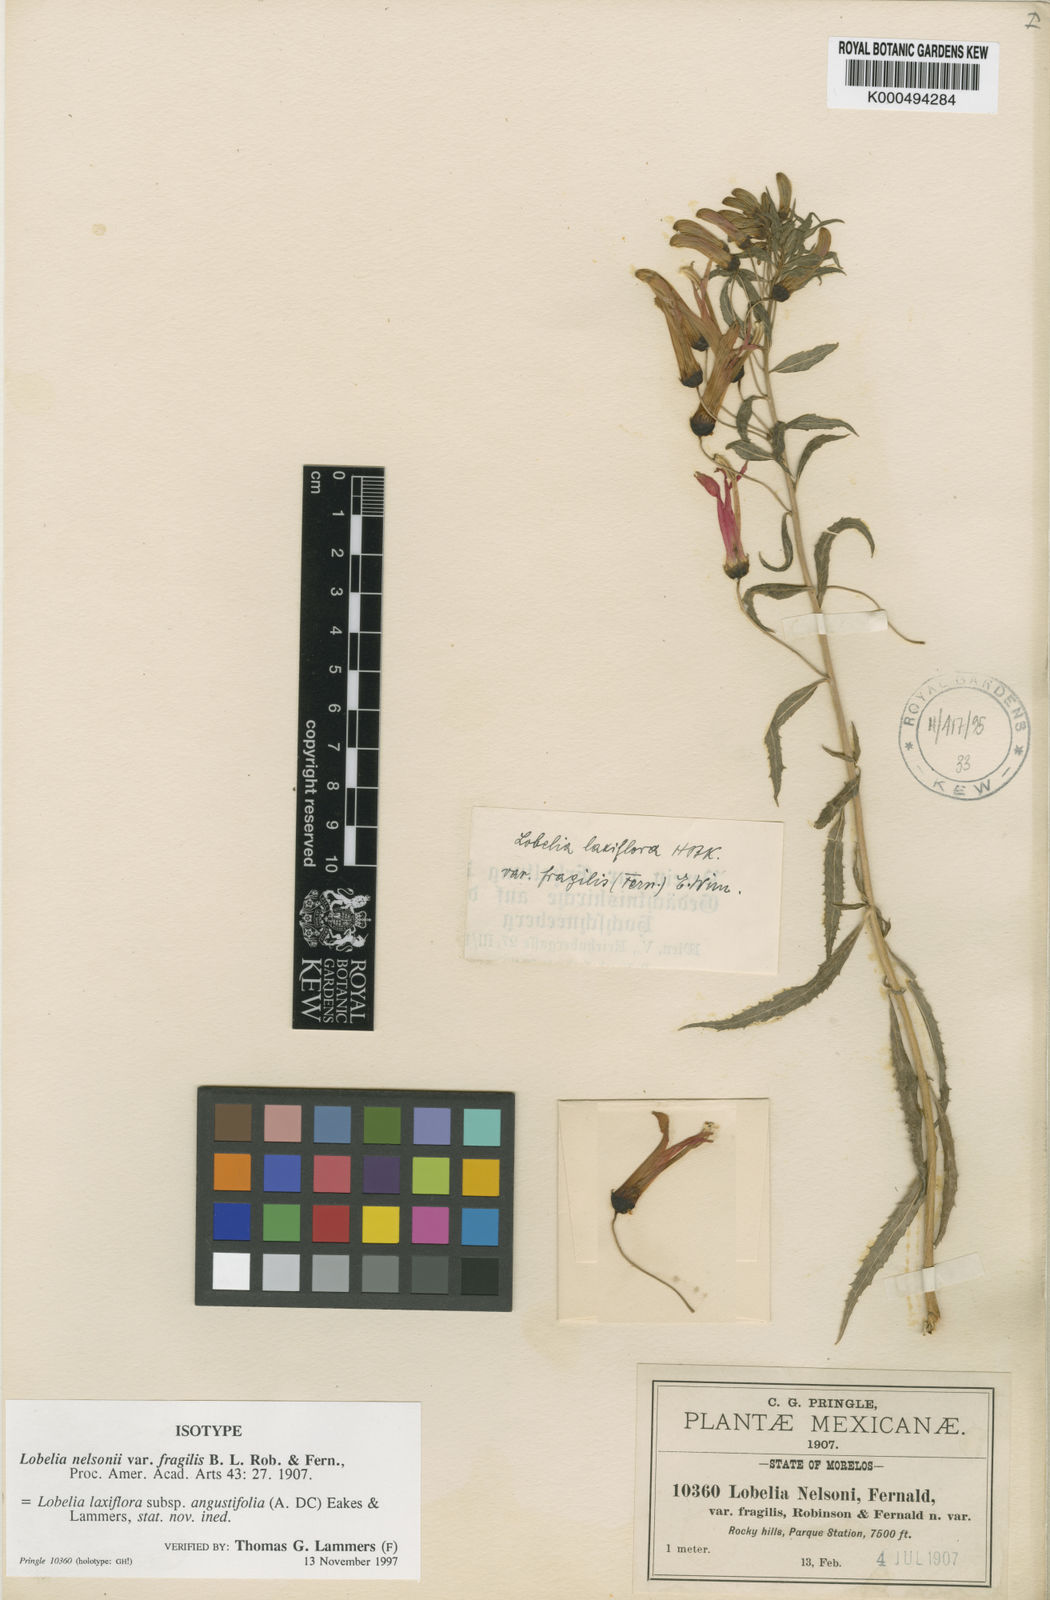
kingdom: Plantae
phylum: Tracheophyta
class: Magnoliopsida
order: Asterales
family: Campanulaceae
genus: Lobelia
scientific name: Lobelia laxiflora
